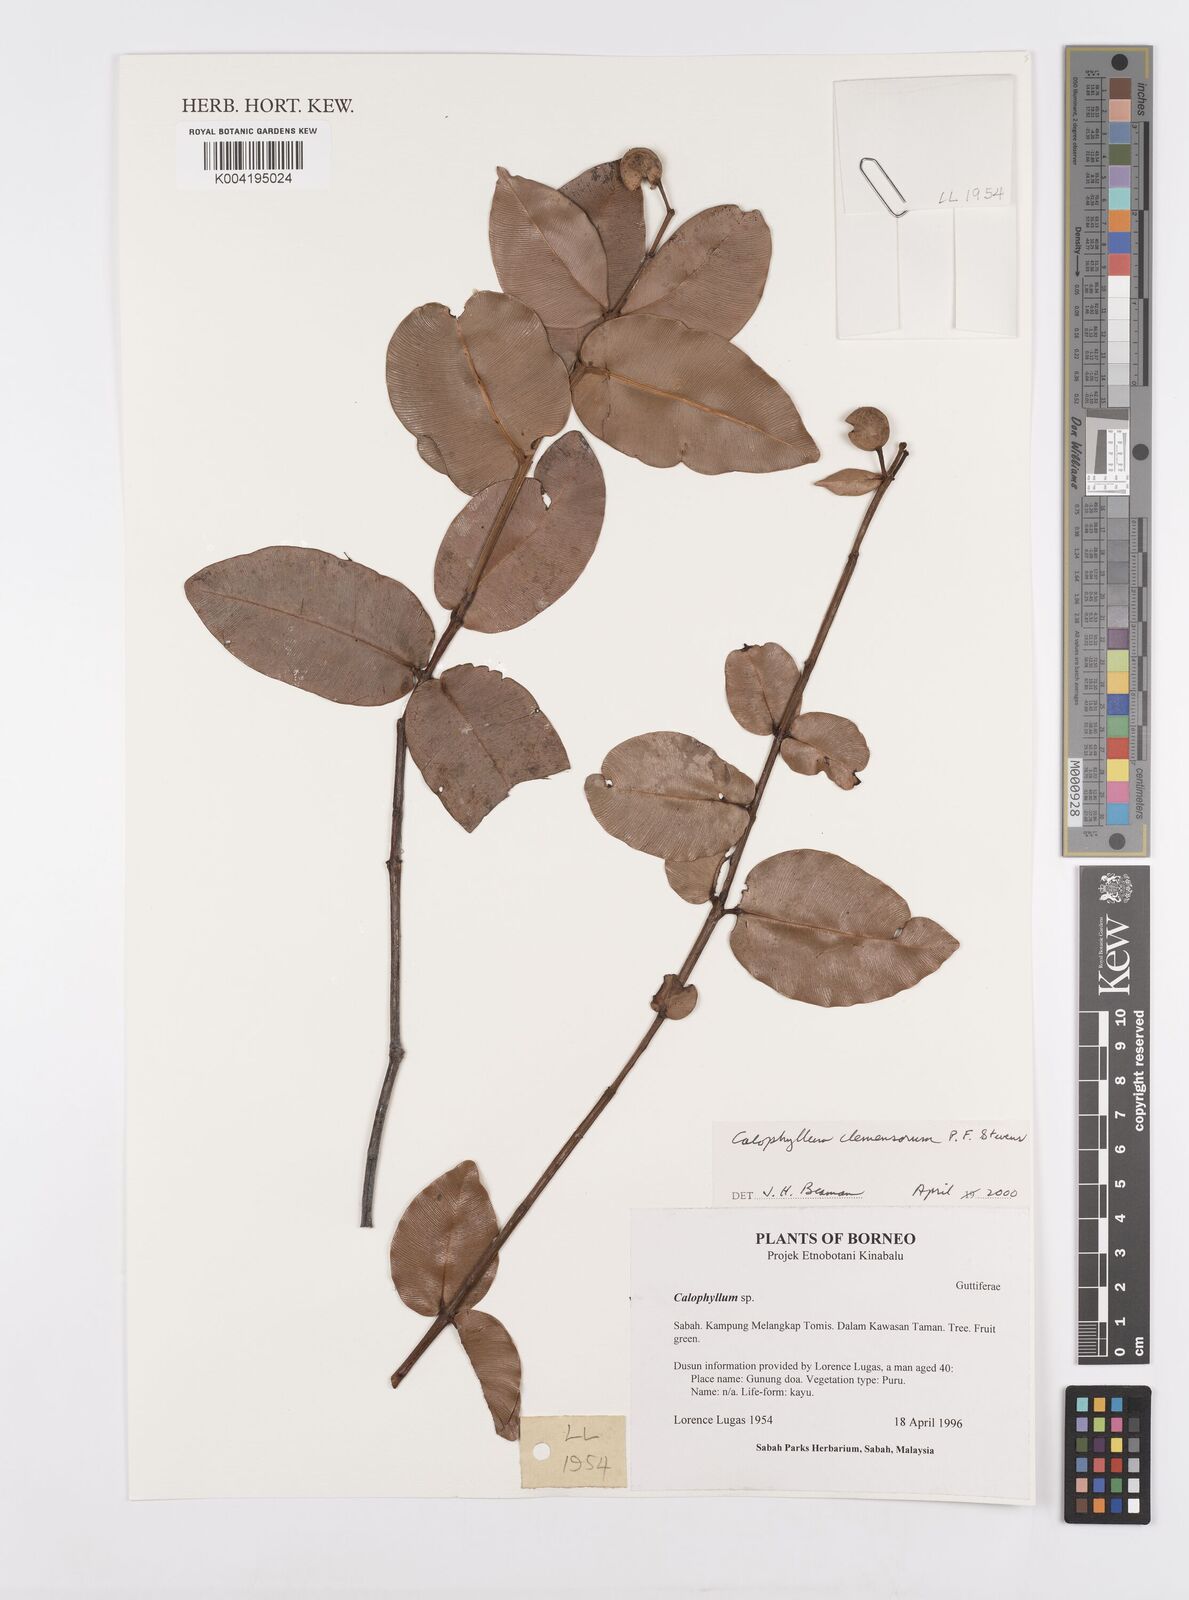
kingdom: Plantae
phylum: Tracheophyta
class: Magnoliopsida
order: Malpighiales
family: Calophyllaceae
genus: Calophyllum
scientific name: Calophyllum clemensiorum
